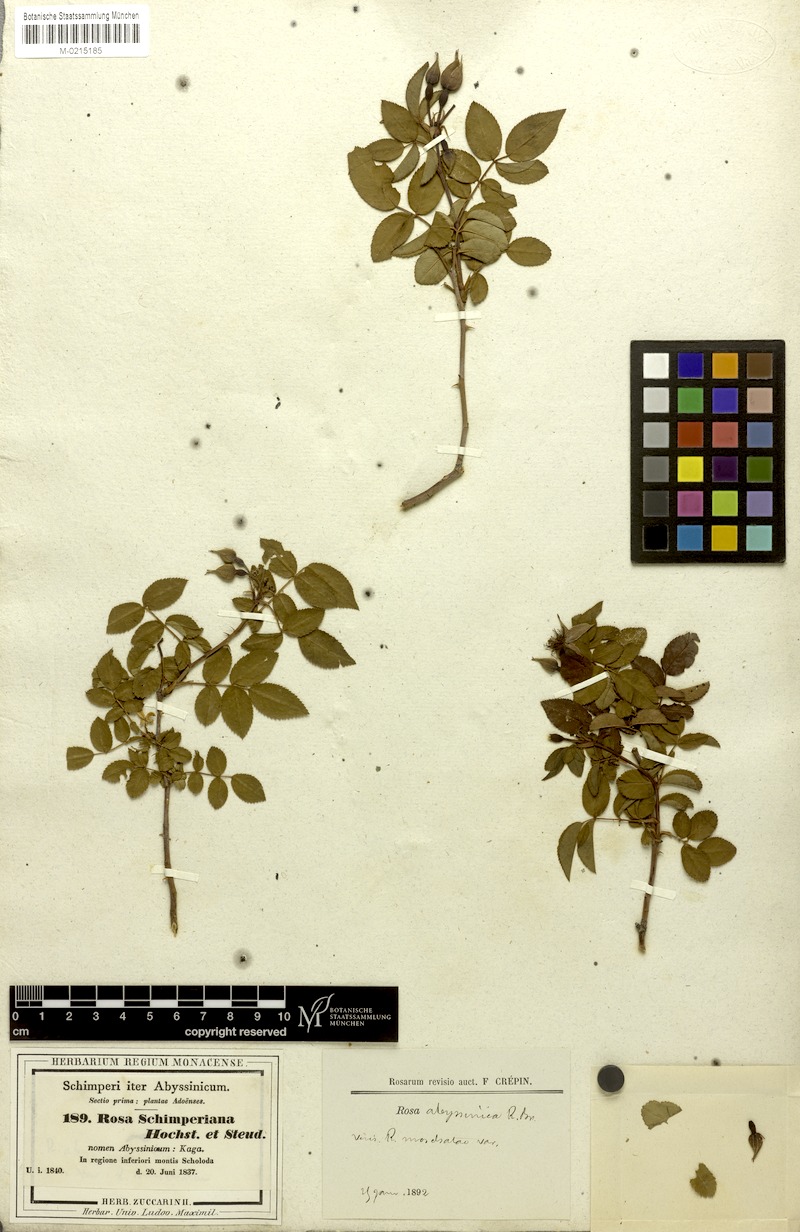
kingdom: Plantae
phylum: Tracheophyta
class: Magnoliopsida
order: Rosales
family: Rosaceae
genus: Rosa
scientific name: Rosa abyssinica
